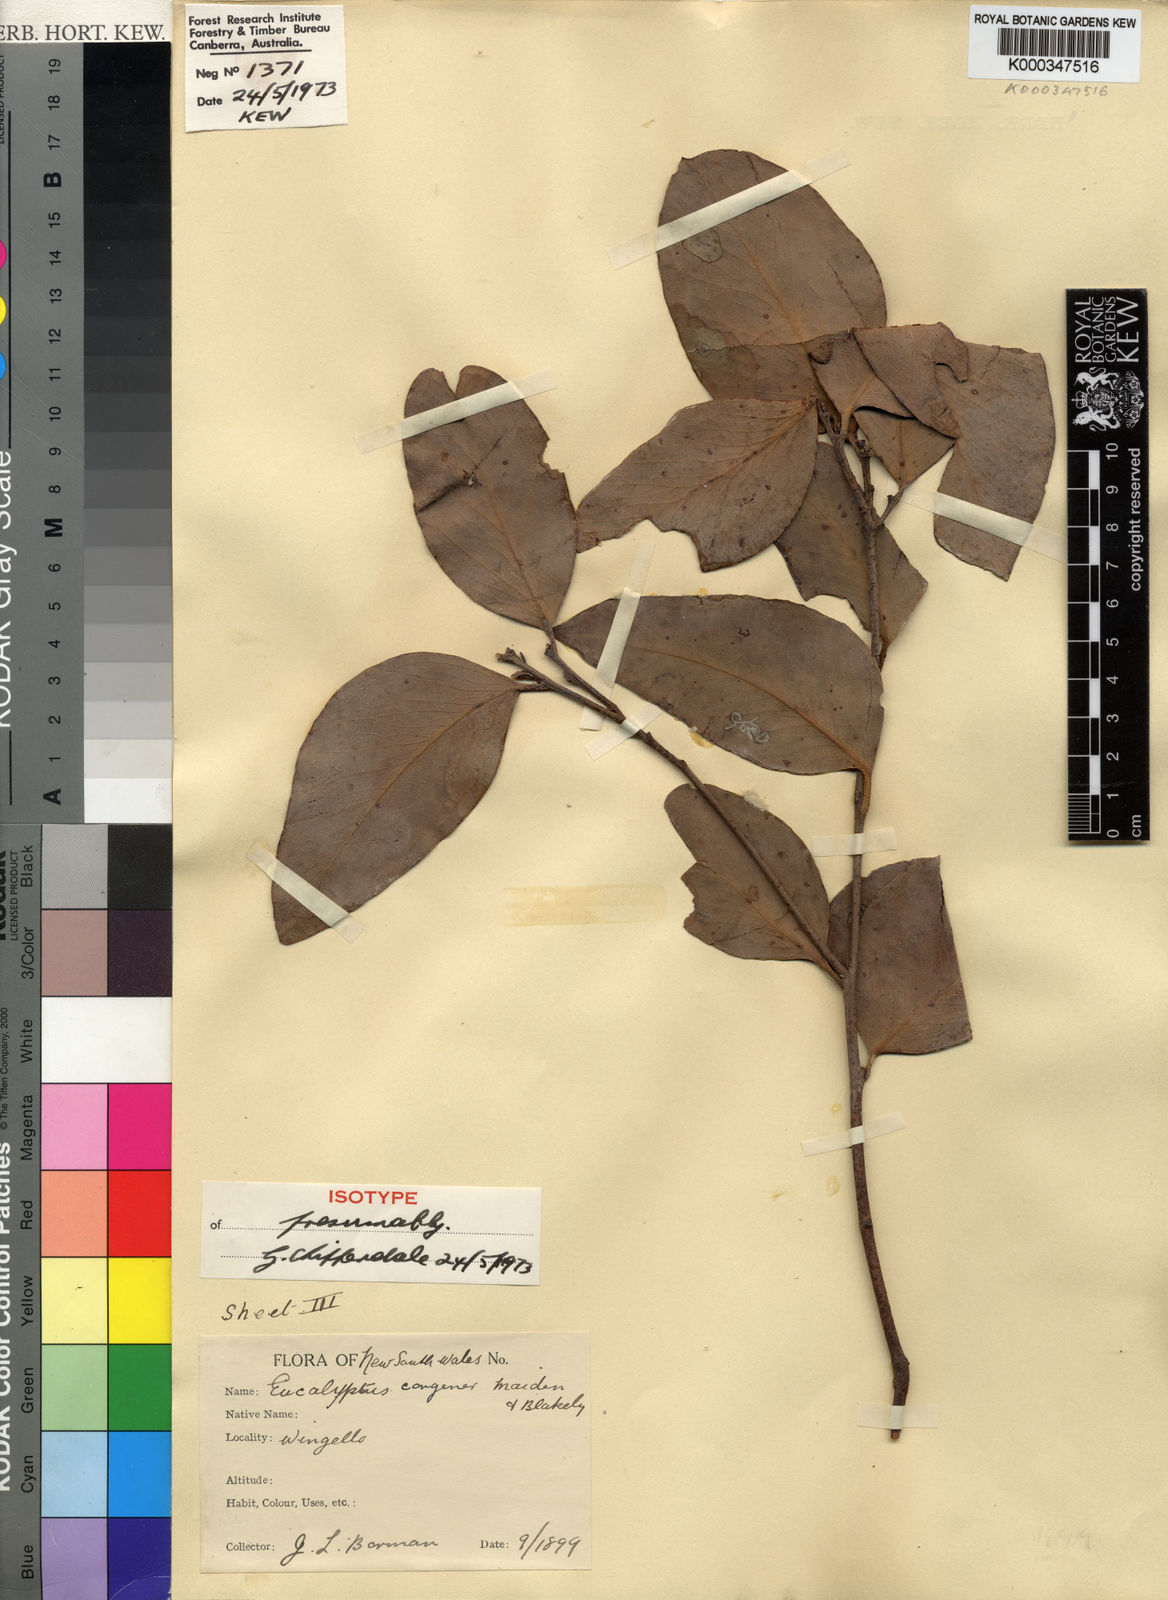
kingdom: Plantae
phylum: Tracheophyta
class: Magnoliopsida
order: Myrtales
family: Myrtaceae
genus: Eucalyptus
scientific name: Eucalyptus congener
